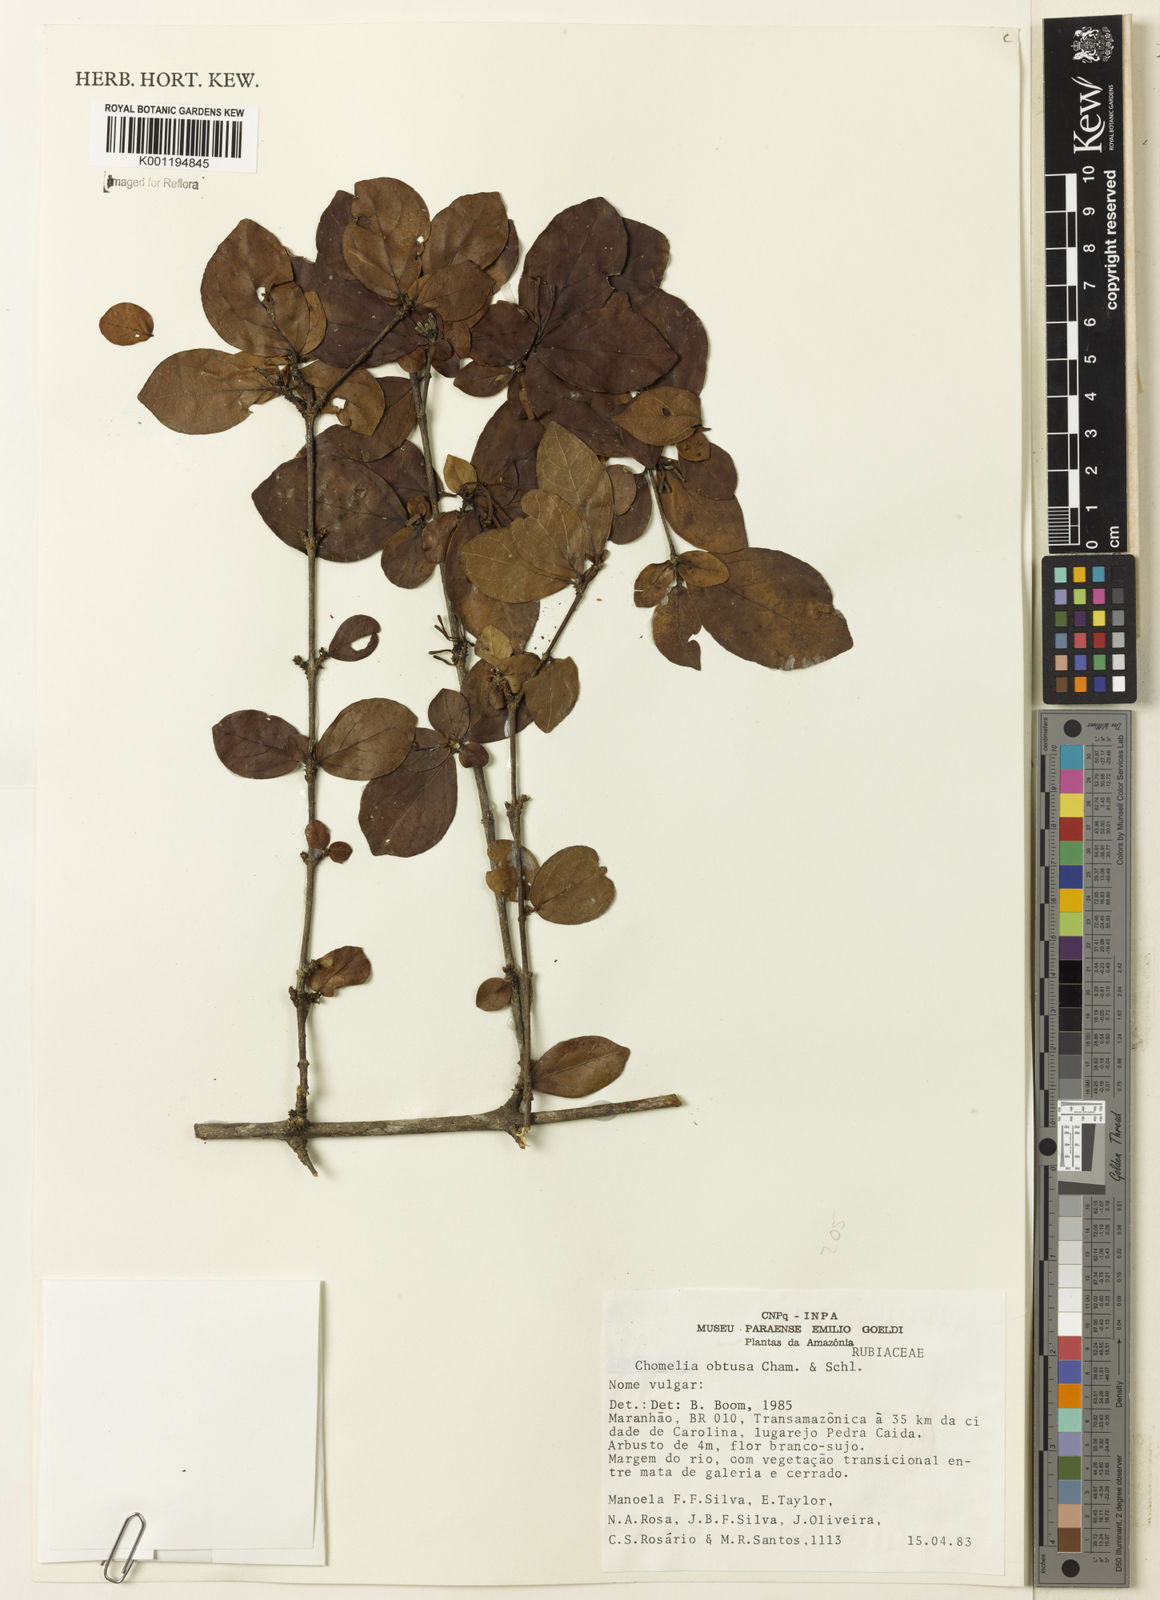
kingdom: Plantae
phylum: Tracheophyta
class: Magnoliopsida
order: Gentianales
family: Rubiaceae
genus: Chomelia
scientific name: Chomelia obtusa
